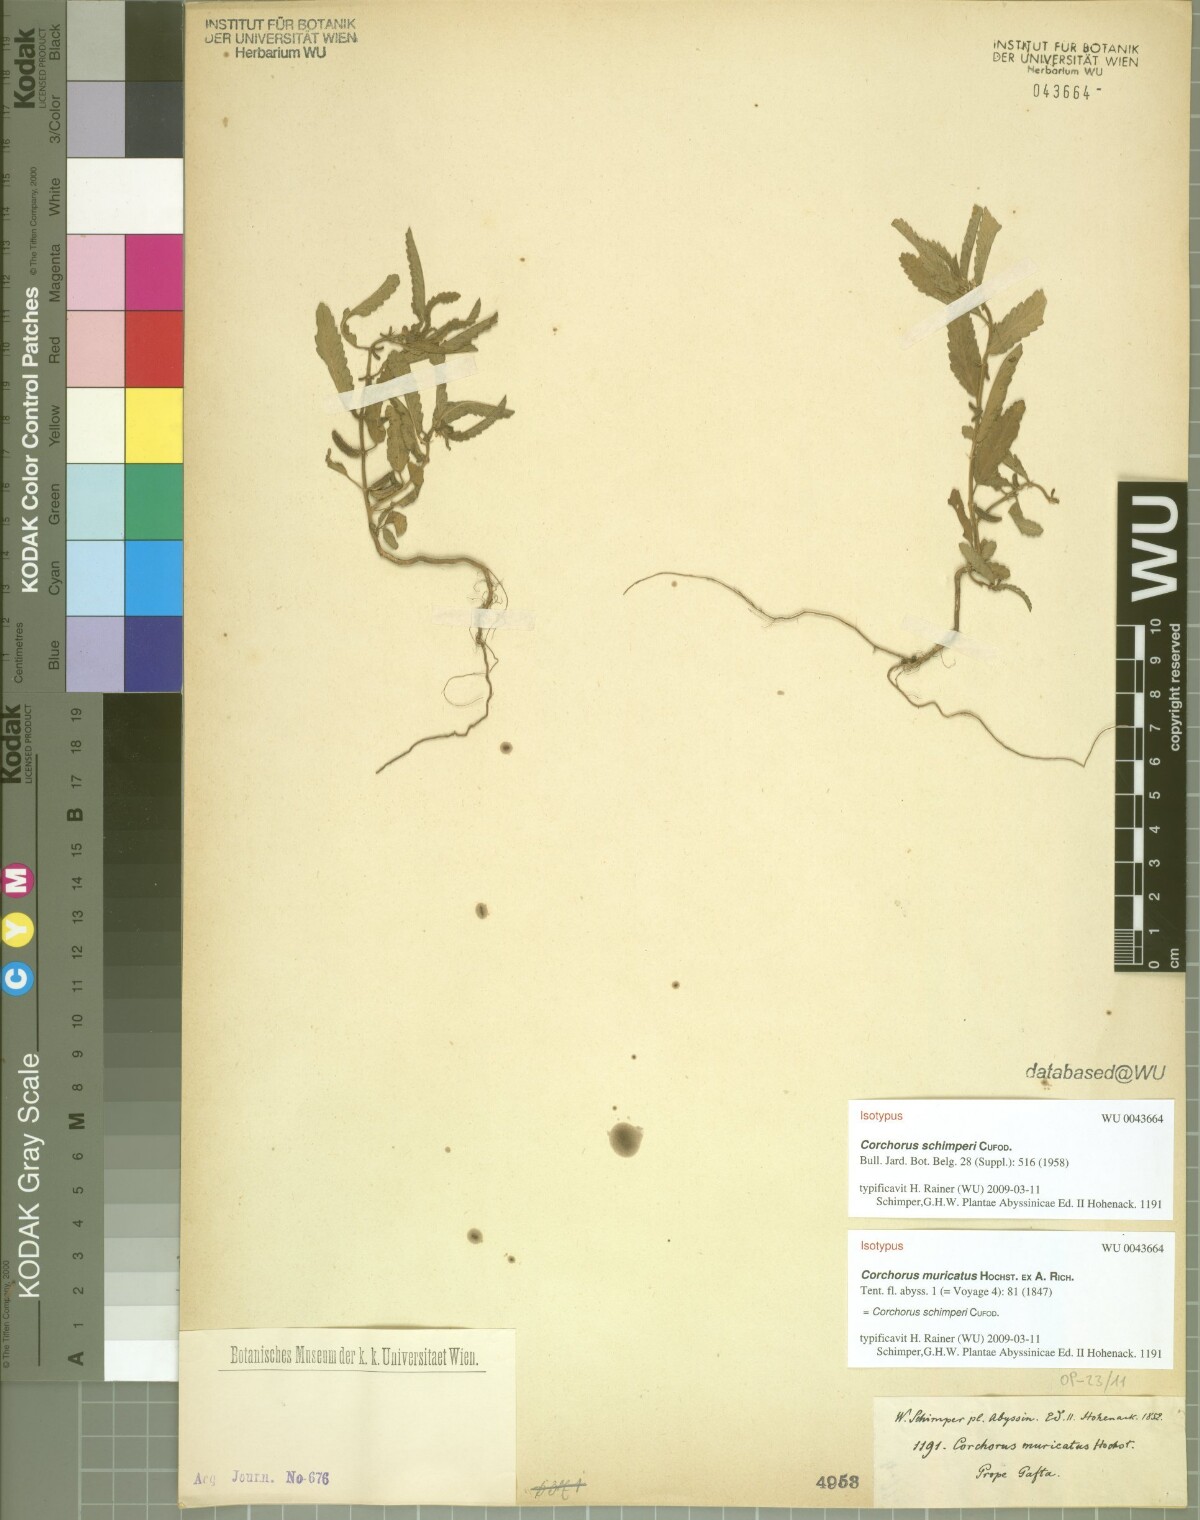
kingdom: Plantae
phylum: Tracheophyta
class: Magnoliopsida
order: Malvales
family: Malvaceae
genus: Corchorus
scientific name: Corchorus schimperi
